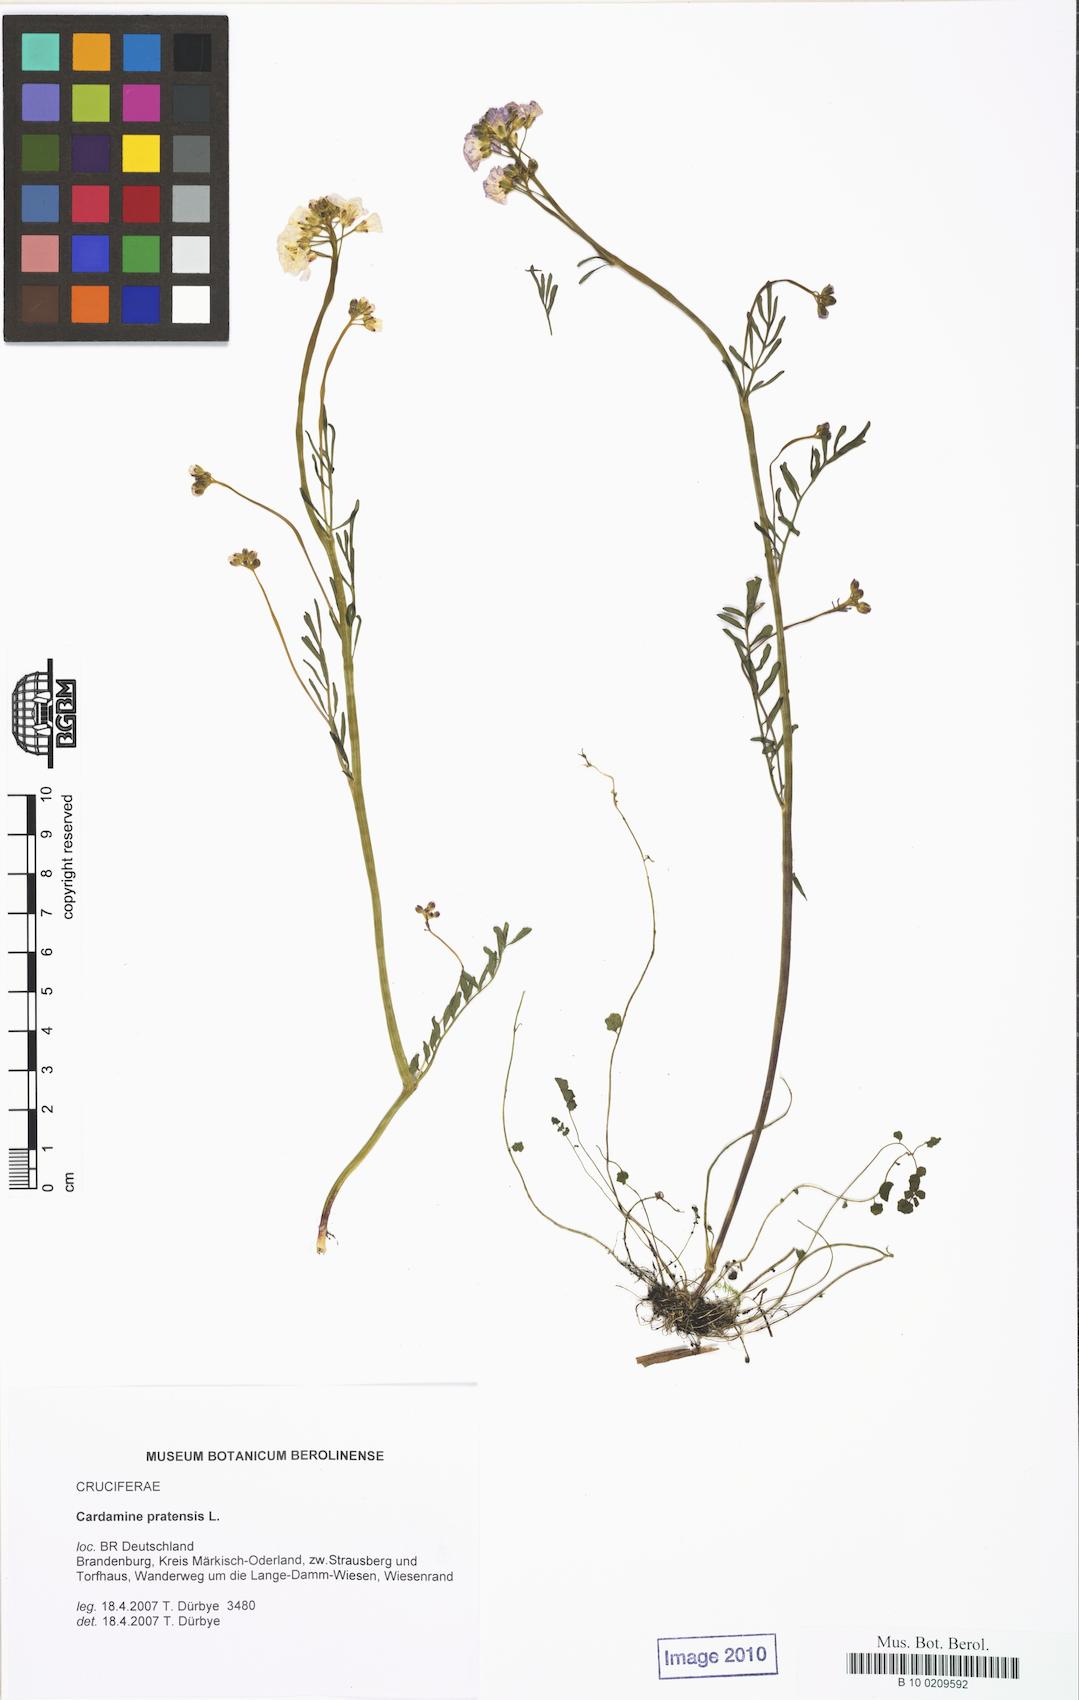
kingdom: Plantae
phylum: Tracheophyta
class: Magnoliopsida
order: Brassicales
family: Brassicaceae
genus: Cardamine
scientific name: Cardamine pratensis
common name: Cuckoo flower
